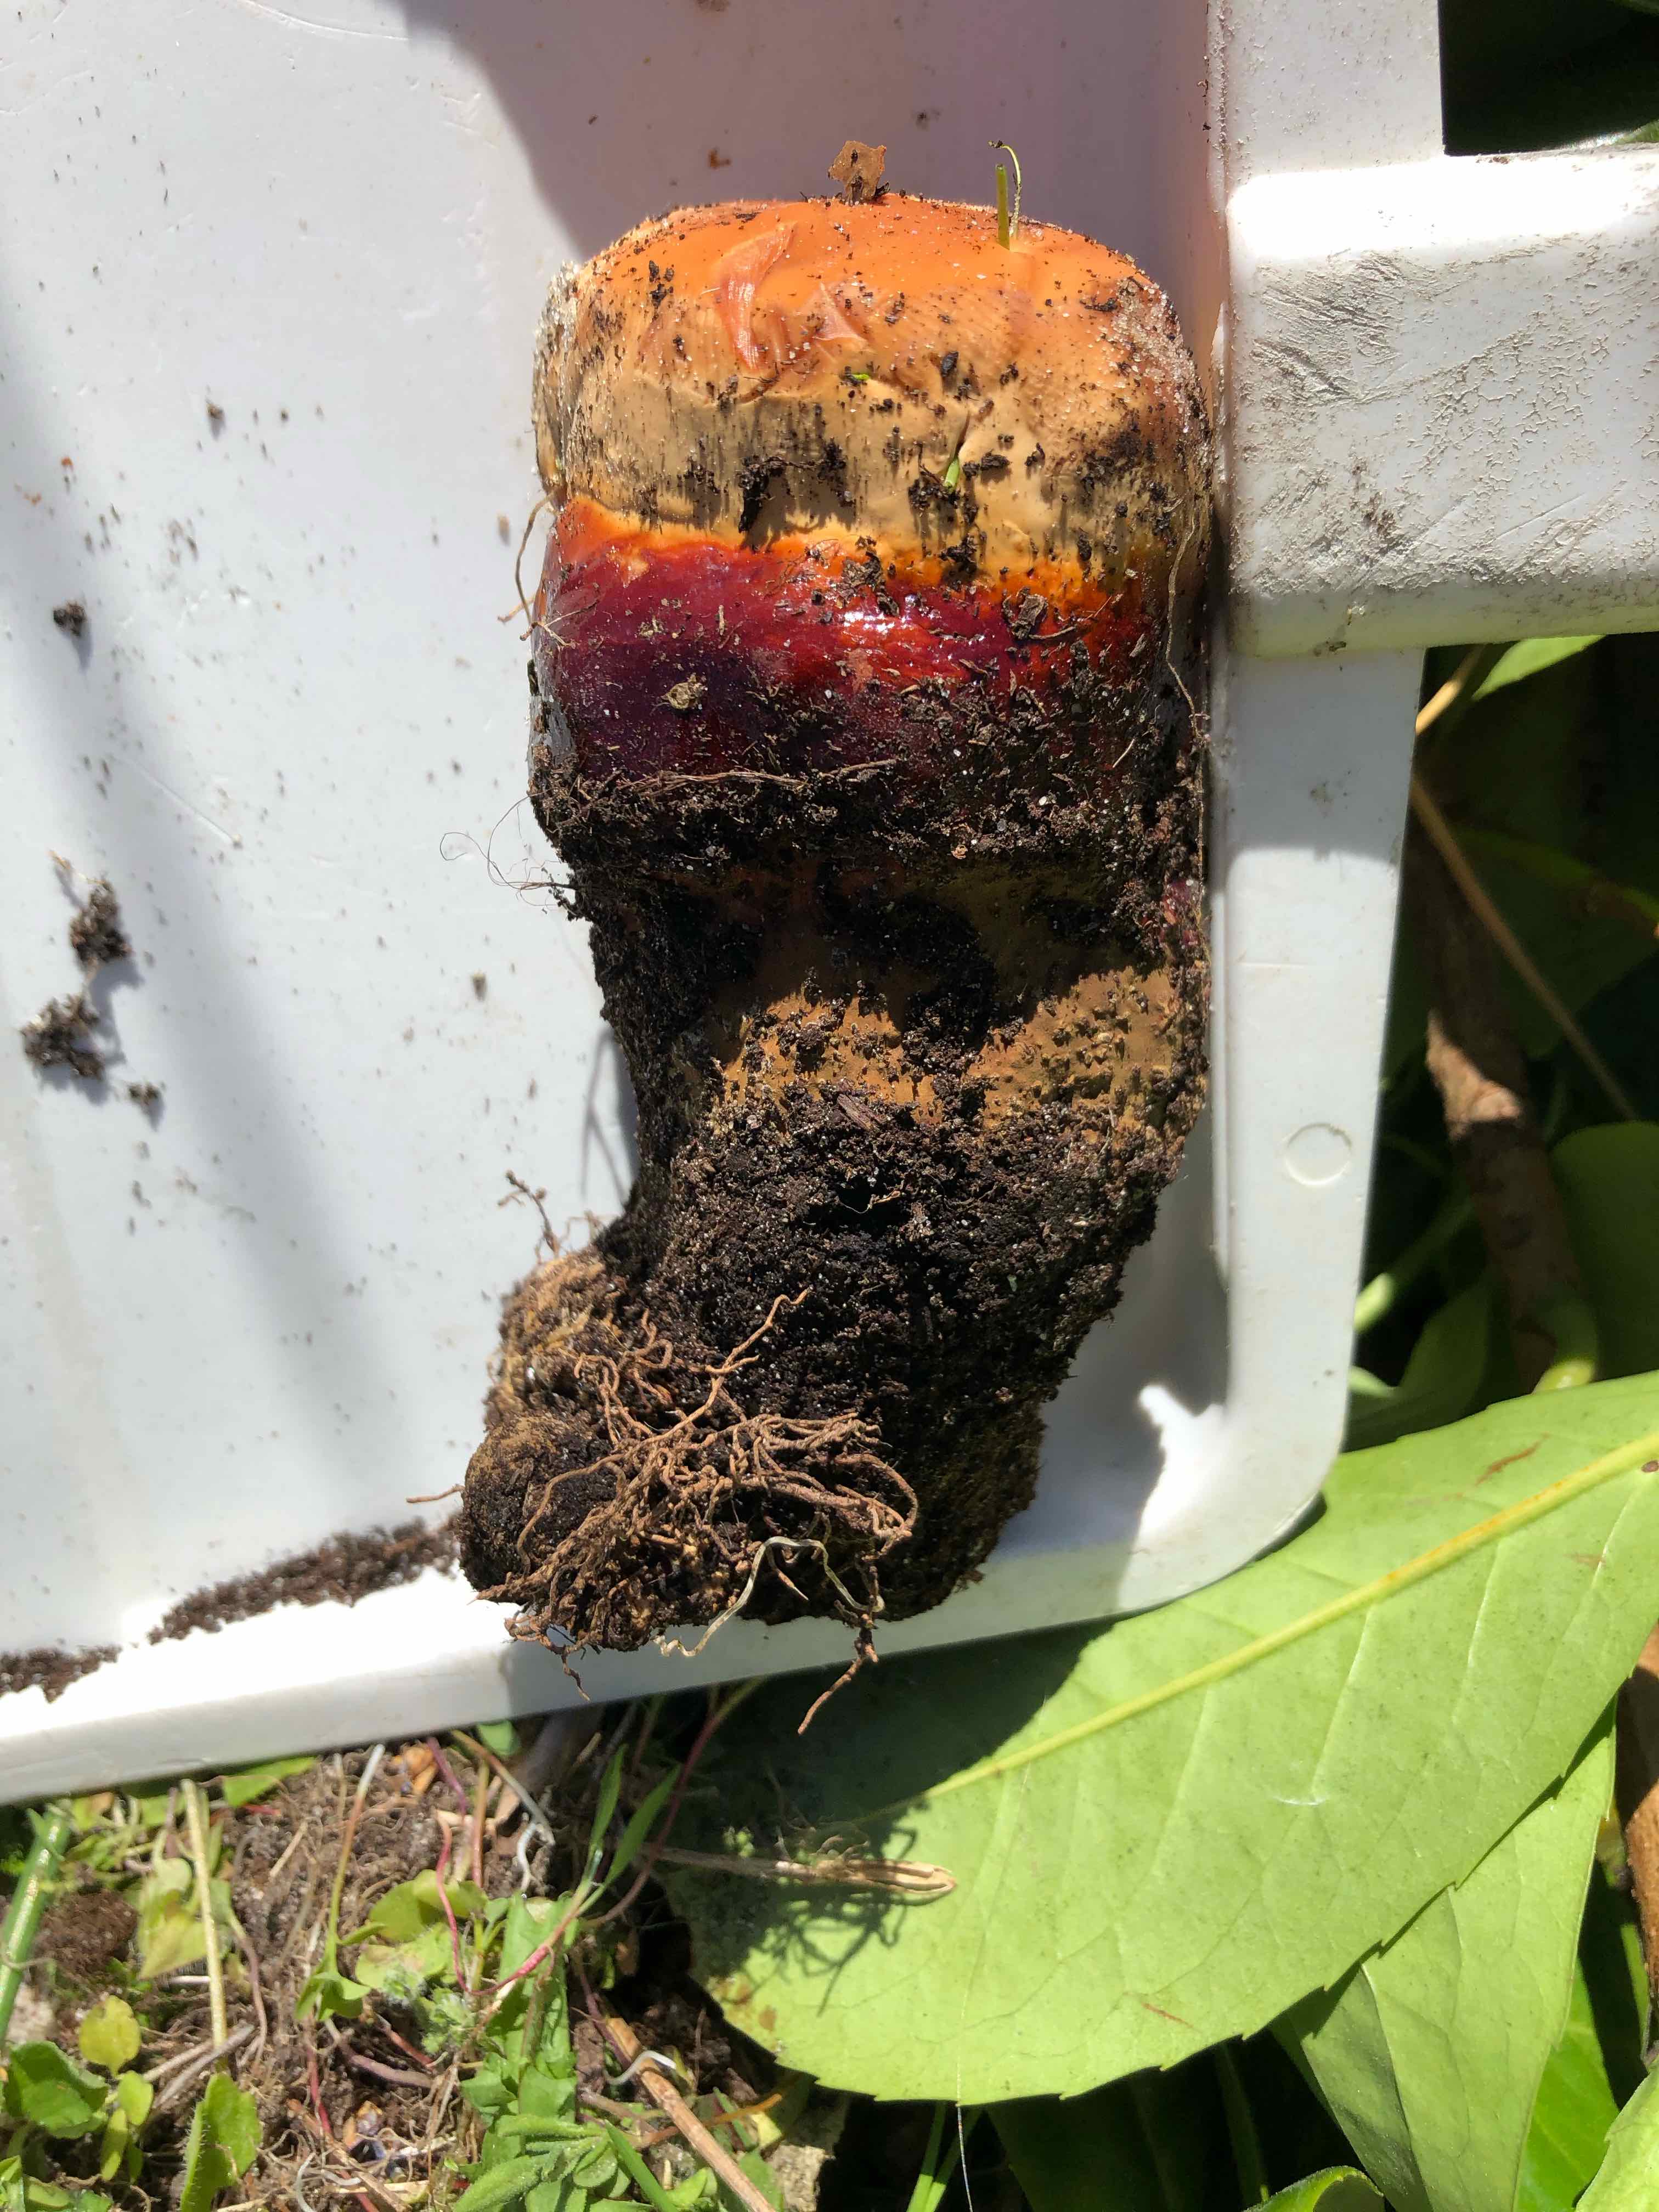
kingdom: Fungi
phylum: Basidiomycota
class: Agaricomycetes
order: Polyporales
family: Polyporaceae
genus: Ganoderma
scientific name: Ganoderma lucidum
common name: skinnende lakporesvamp
